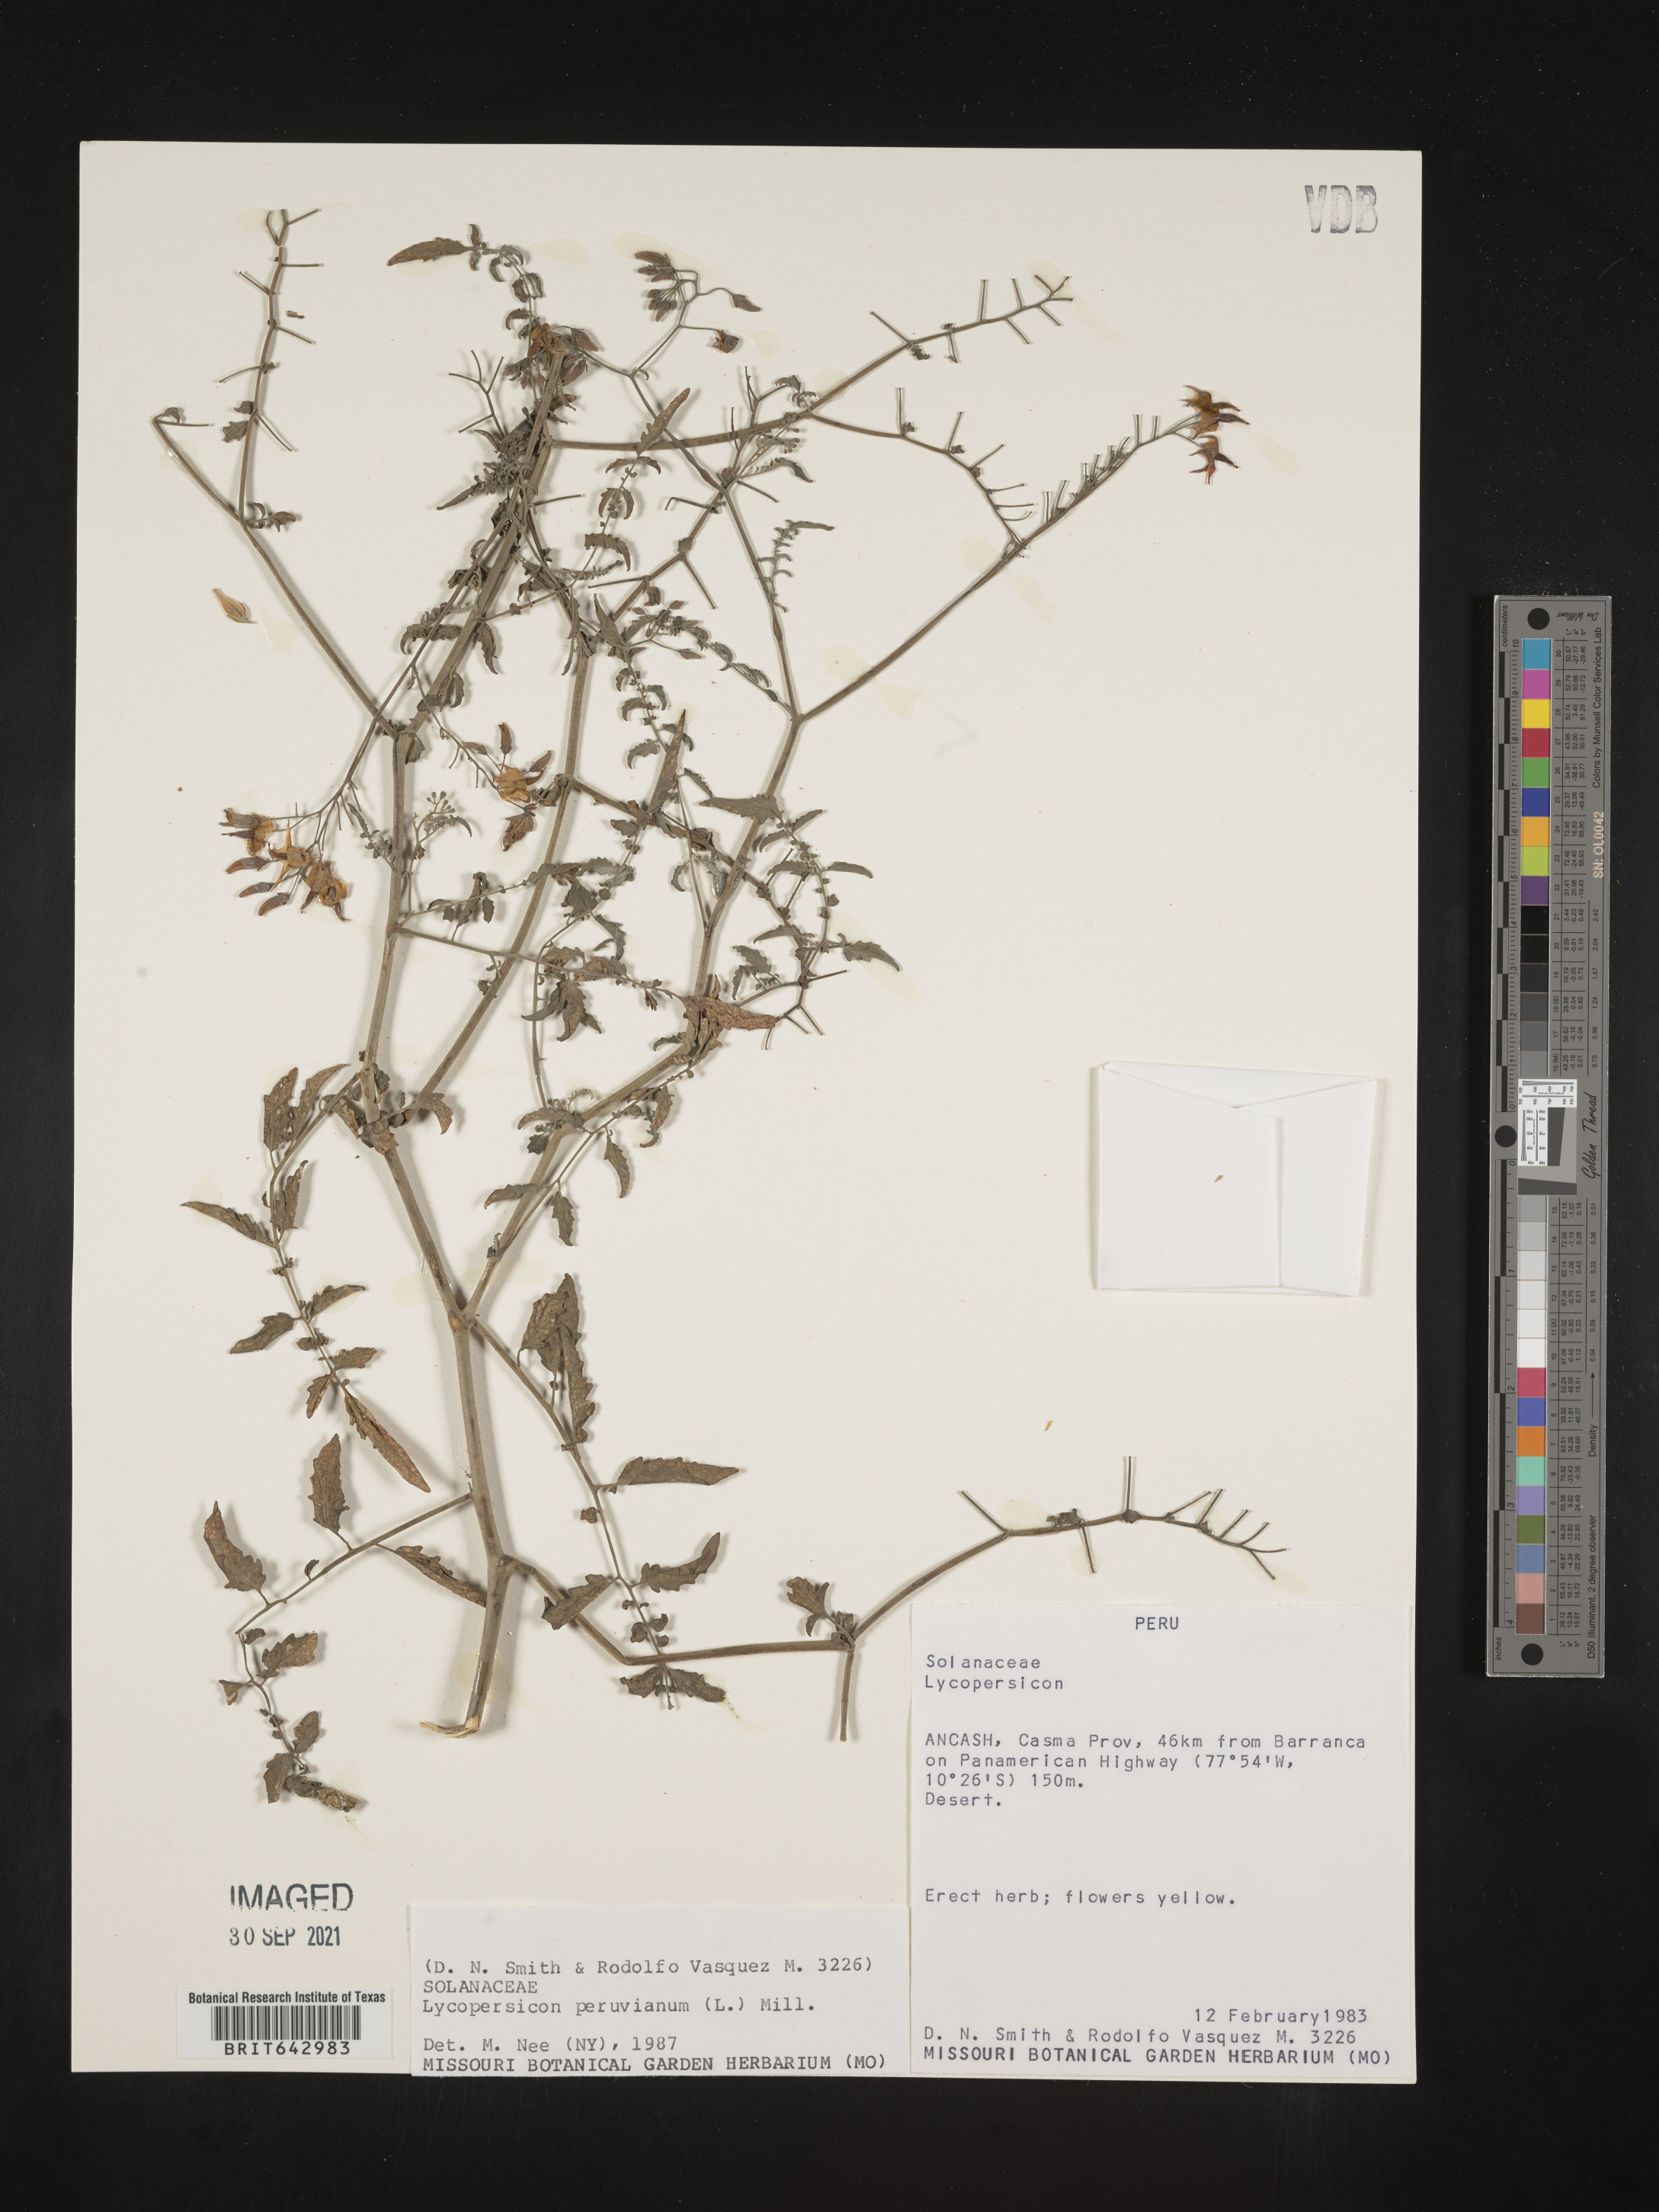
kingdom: Plantae
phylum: Tracheophyta
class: Magnoliopsida
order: Solanales
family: Solanaceae
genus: Lycopersicon
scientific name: Lycopersicon
